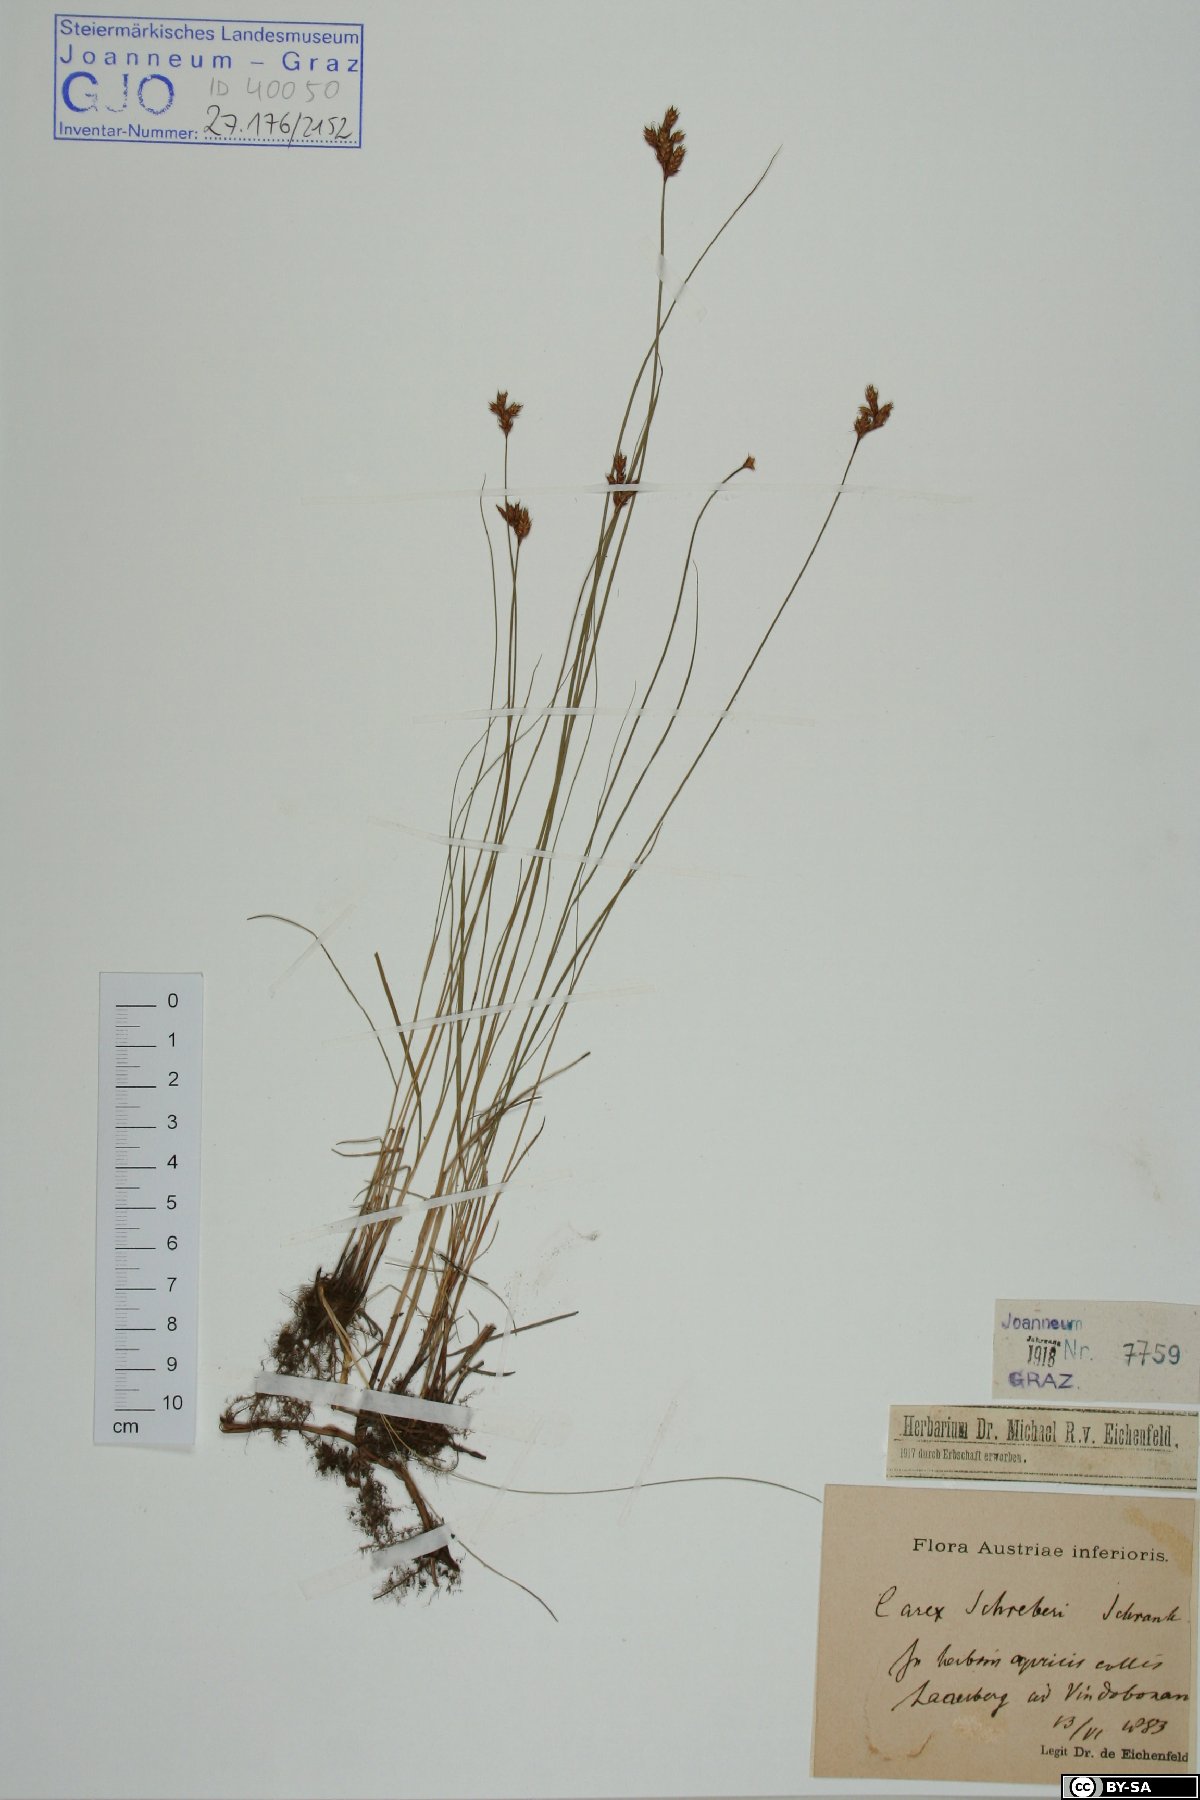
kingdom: Plantae
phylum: Tracheophyta
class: Liliopsida
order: Poales
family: Cyperaceae
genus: Carex
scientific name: Carex praecox
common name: Early sedge
